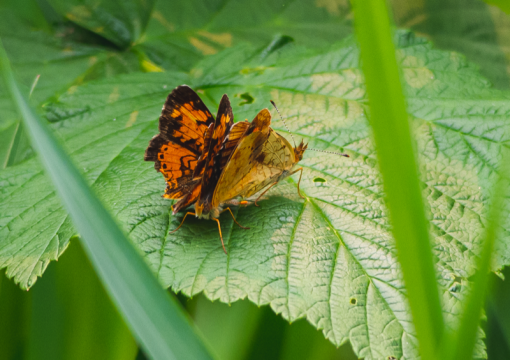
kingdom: Animalia
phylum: Arthropoda
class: Insecta
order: Lepidoptera
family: Nymphalidae
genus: Phyciodes
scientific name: Phyciodes tharos
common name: Northern Crescent
